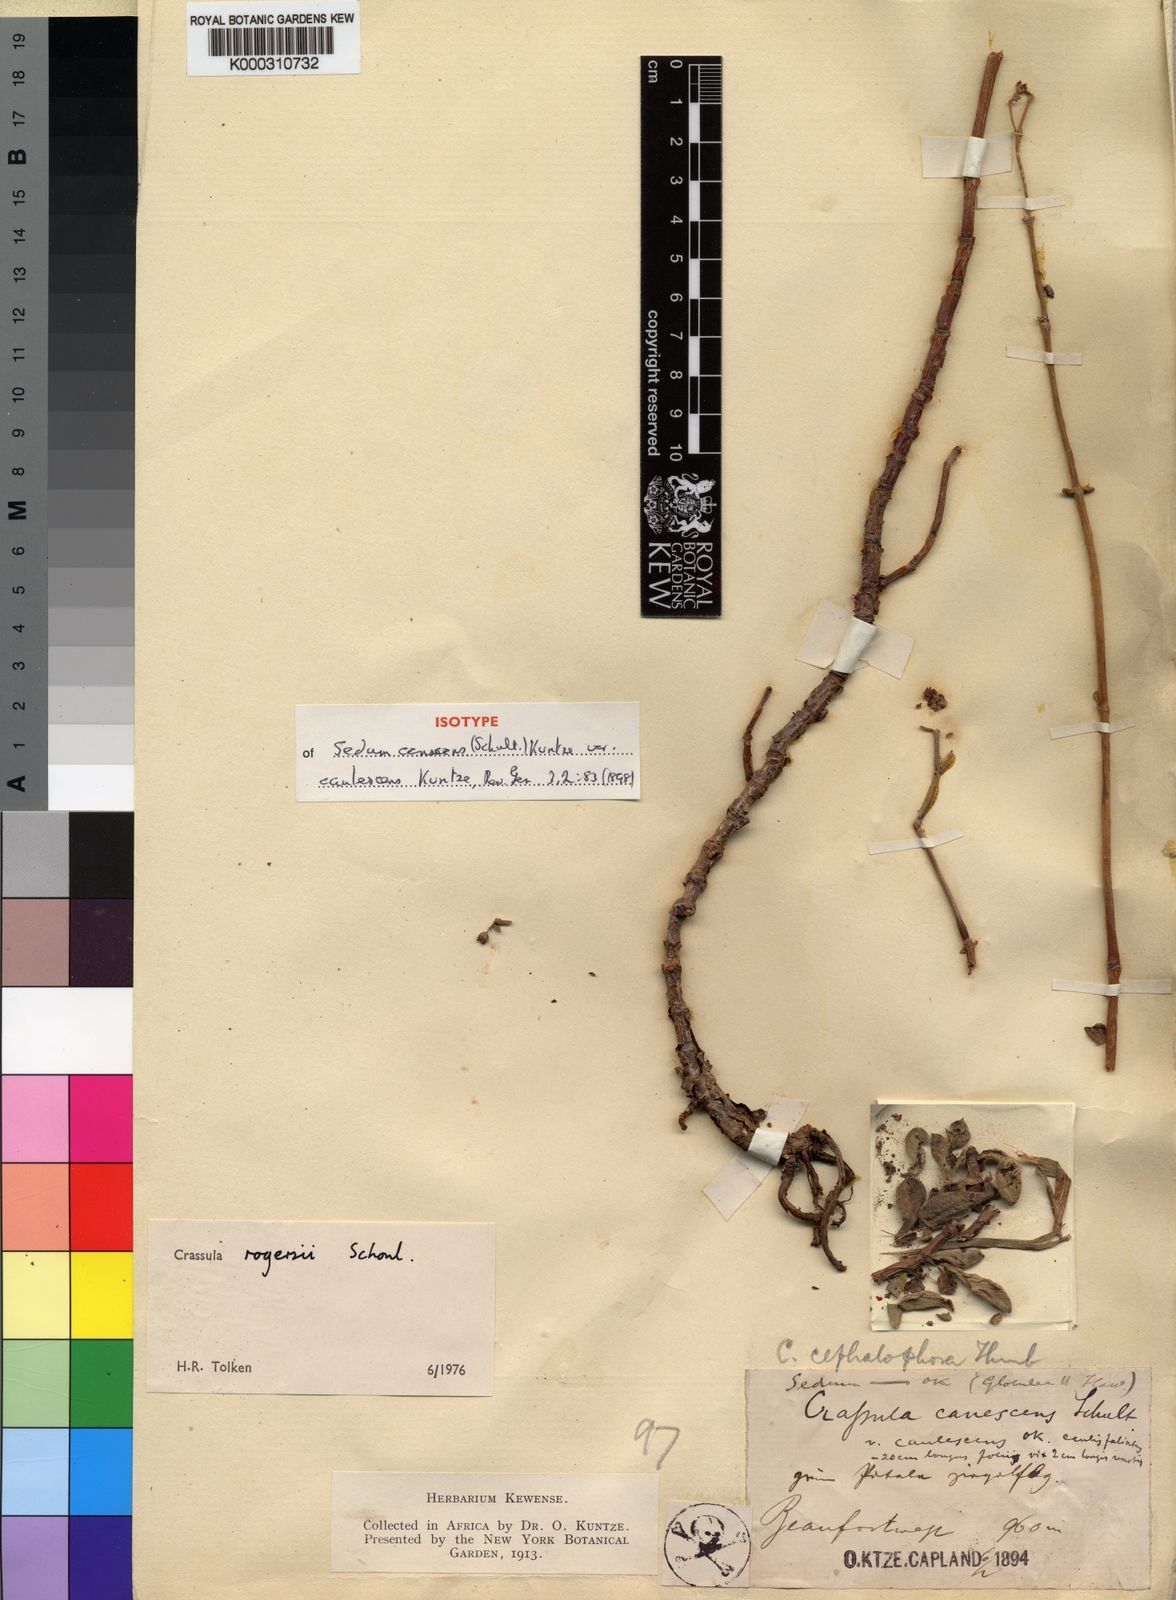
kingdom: Plantae
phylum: Tracheophyta
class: Magnoliopsida
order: Saxifragales
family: Crassulaceae
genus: Crassula
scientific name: Crassula
